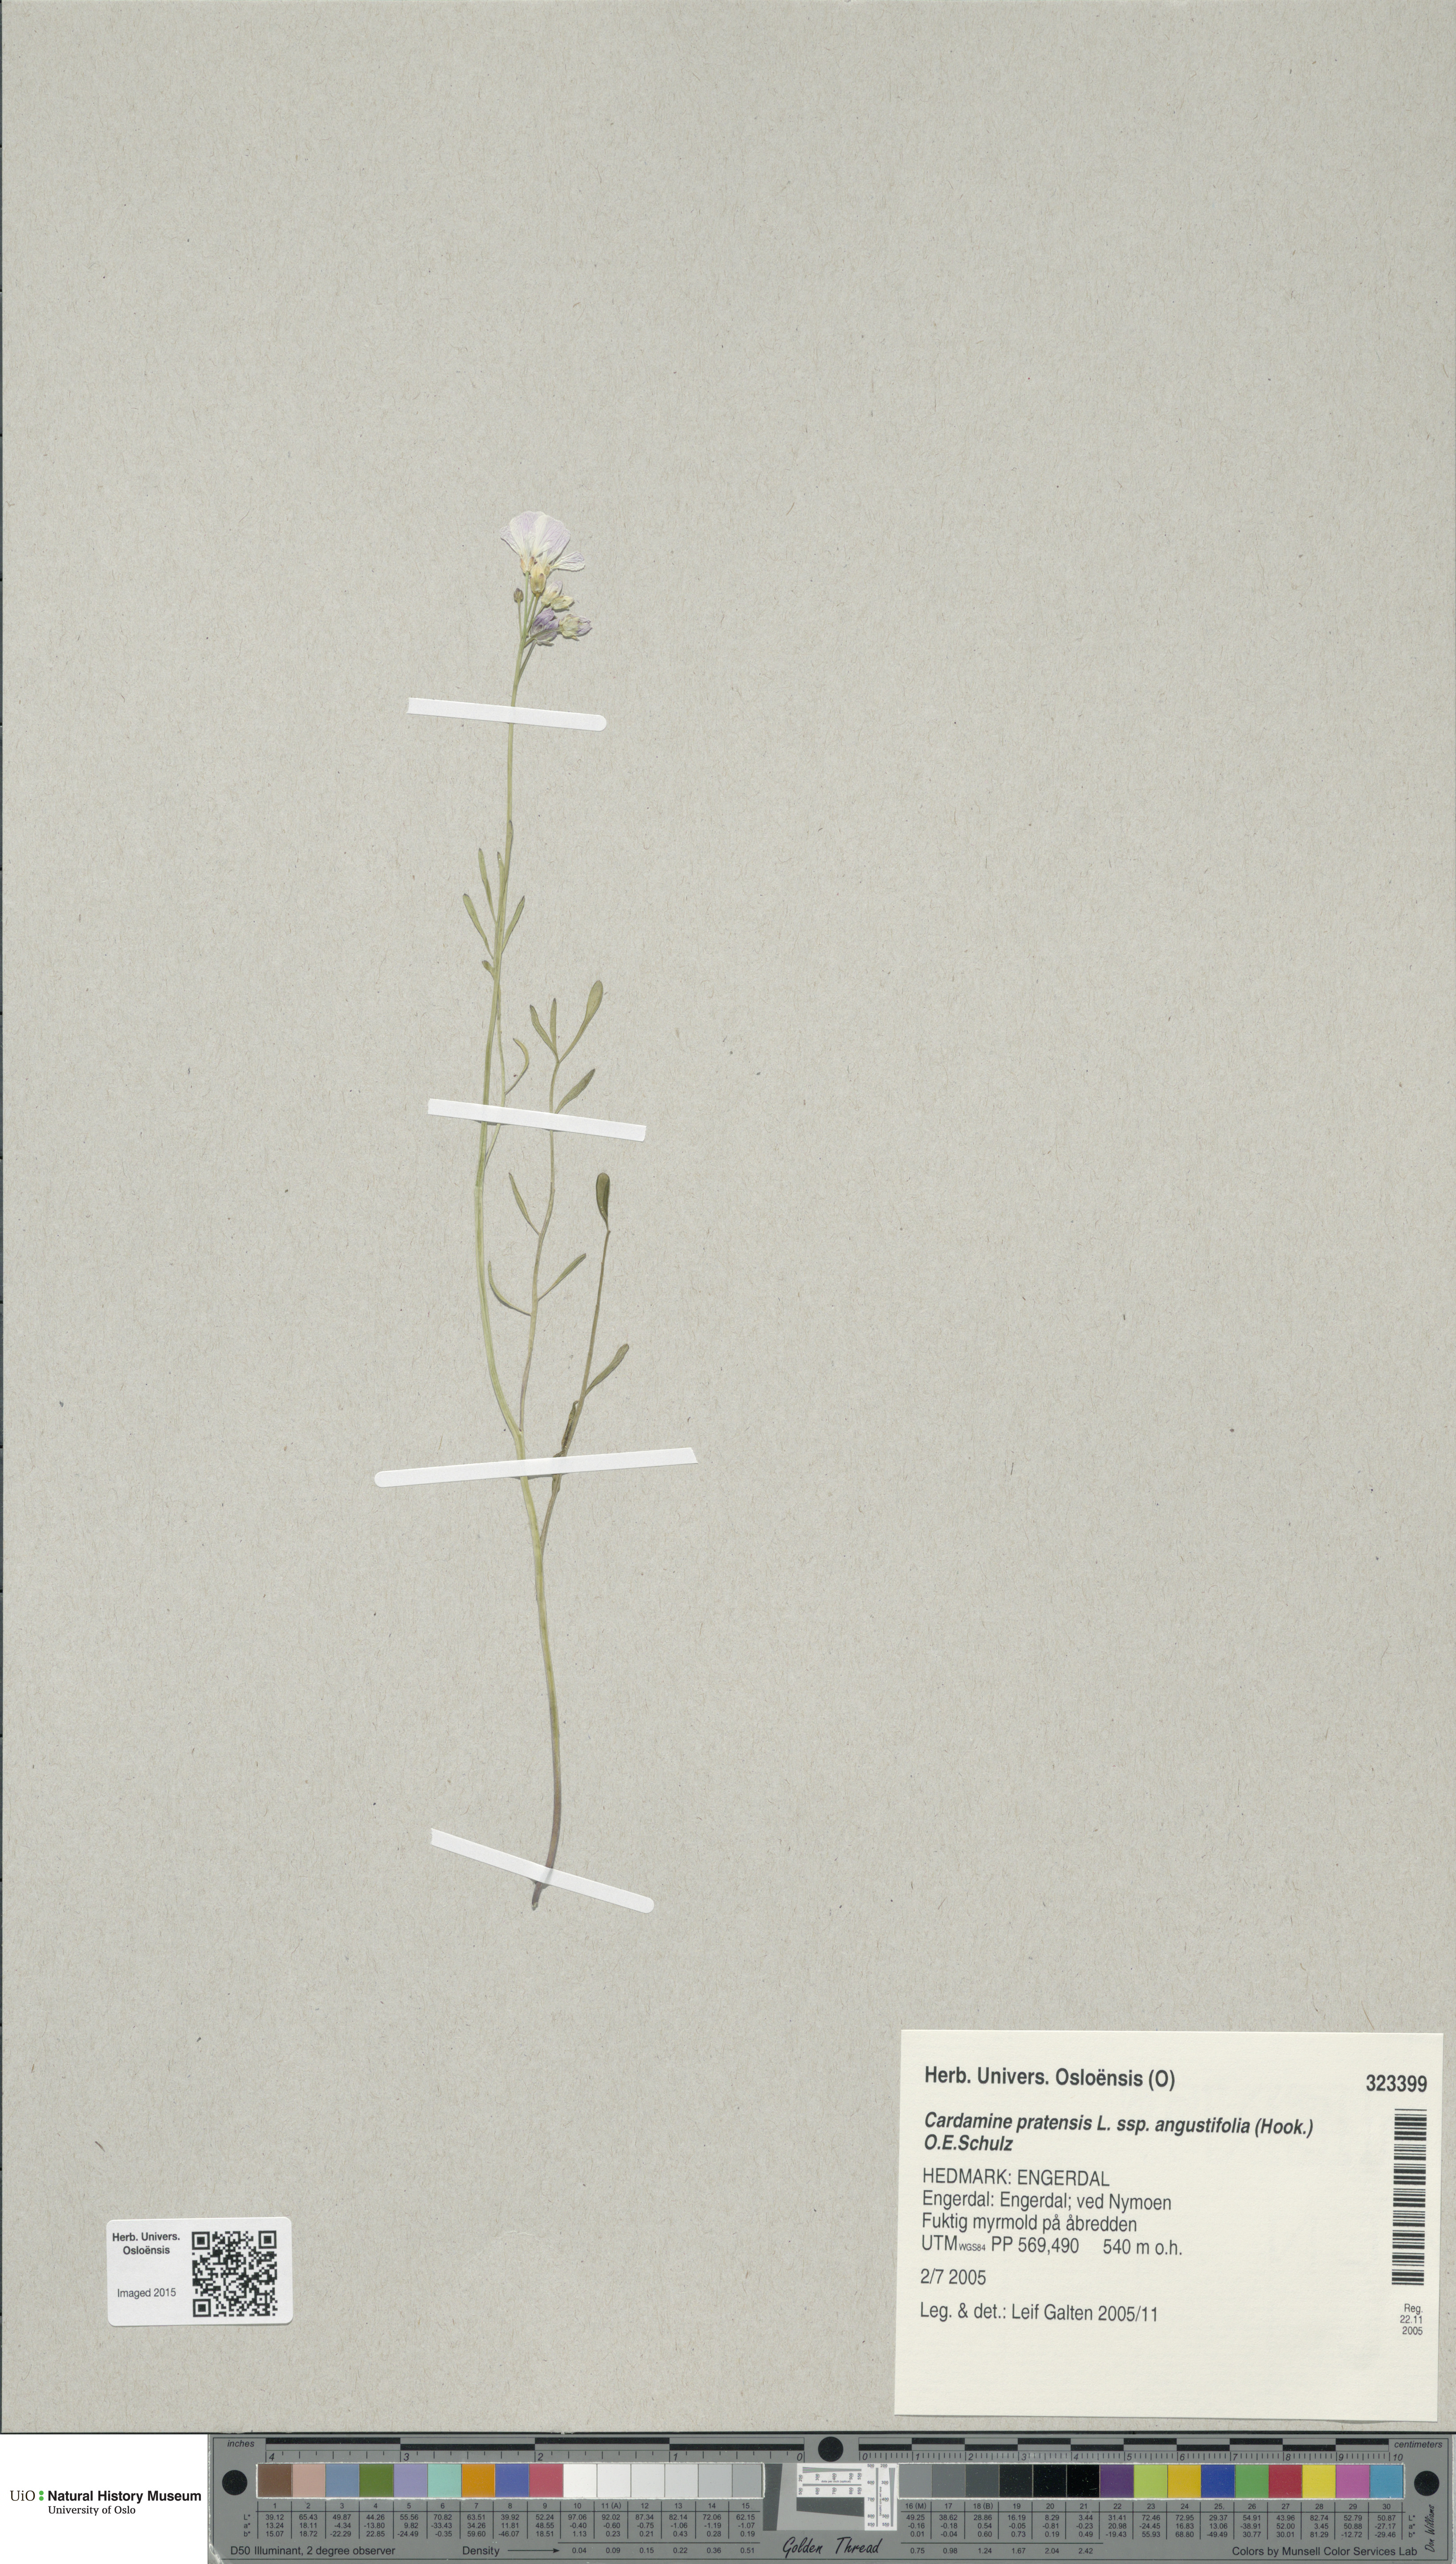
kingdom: Plantae
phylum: Tracheophyta
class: Magnoliopsida
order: Brassicales
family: Brassicaceae
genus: Cardamine
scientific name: Cardamine nymanii
